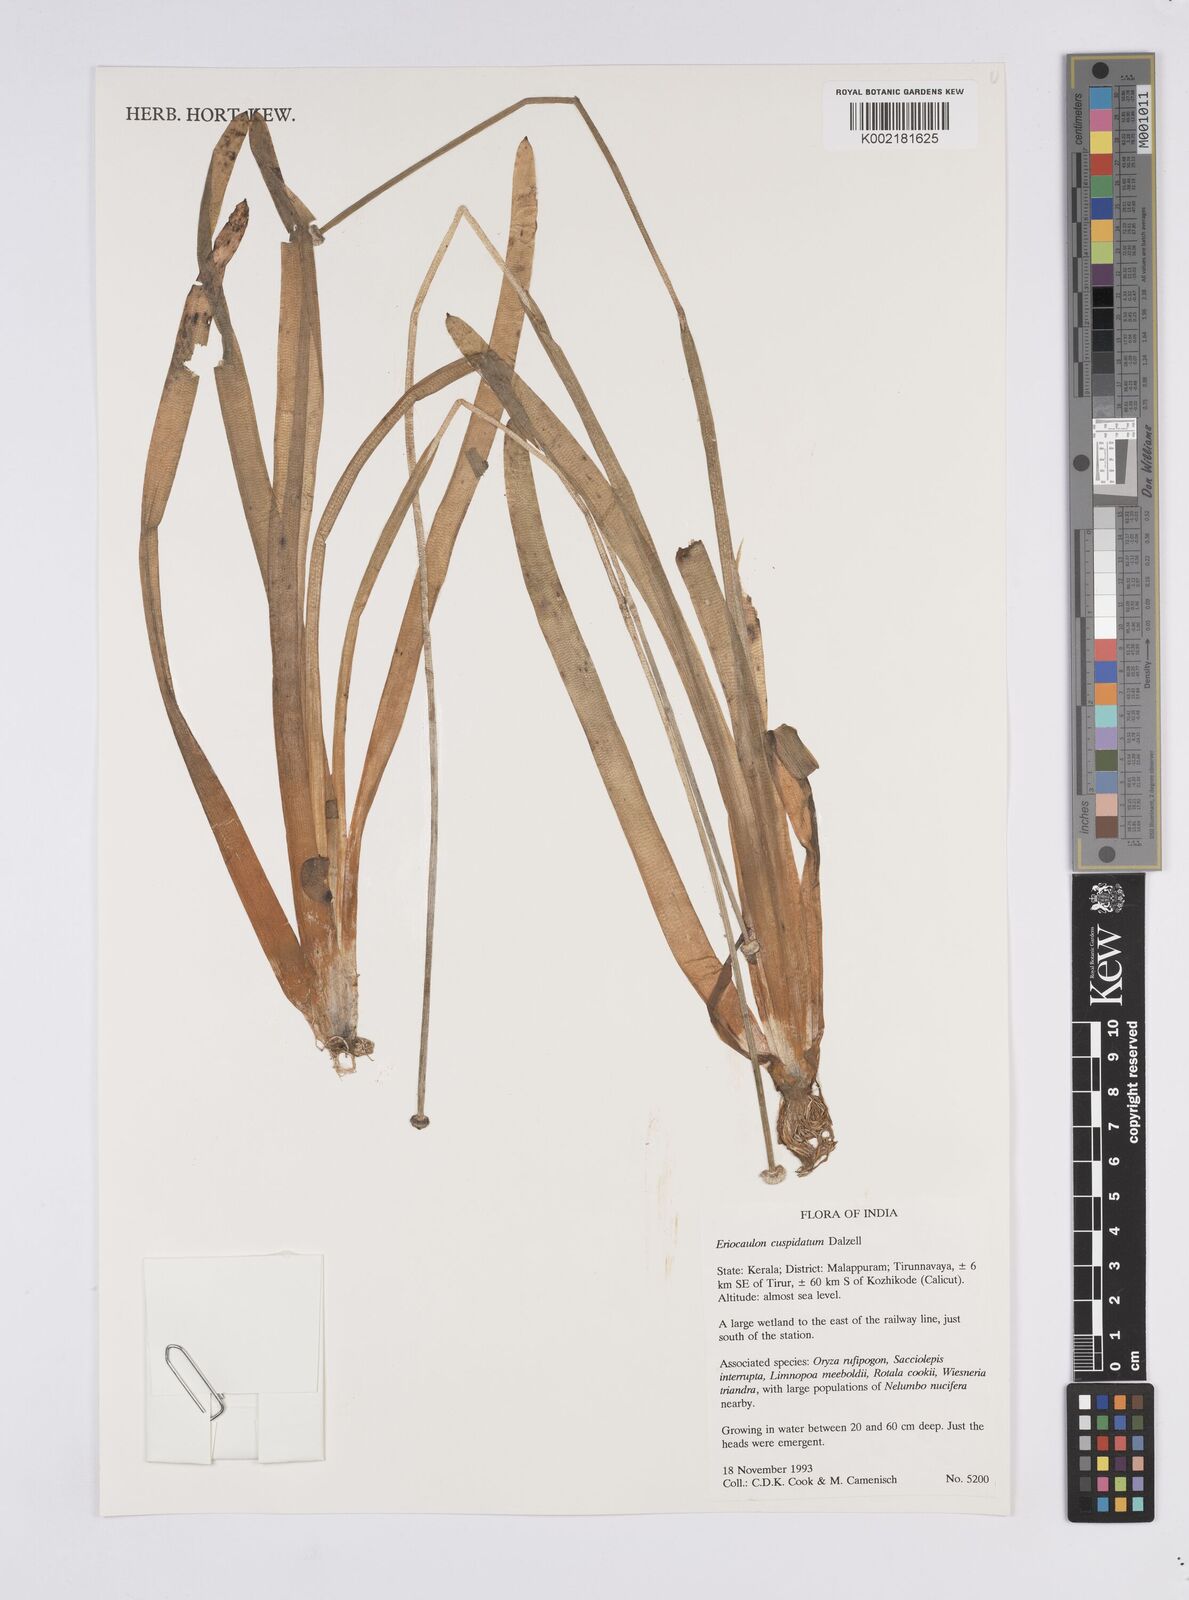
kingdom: Plantae
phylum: Tracheophyta
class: Liliopsida
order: Poales
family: Eriocaulaceae
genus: Eriocaulon
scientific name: Eriocaulon cuspidatum
